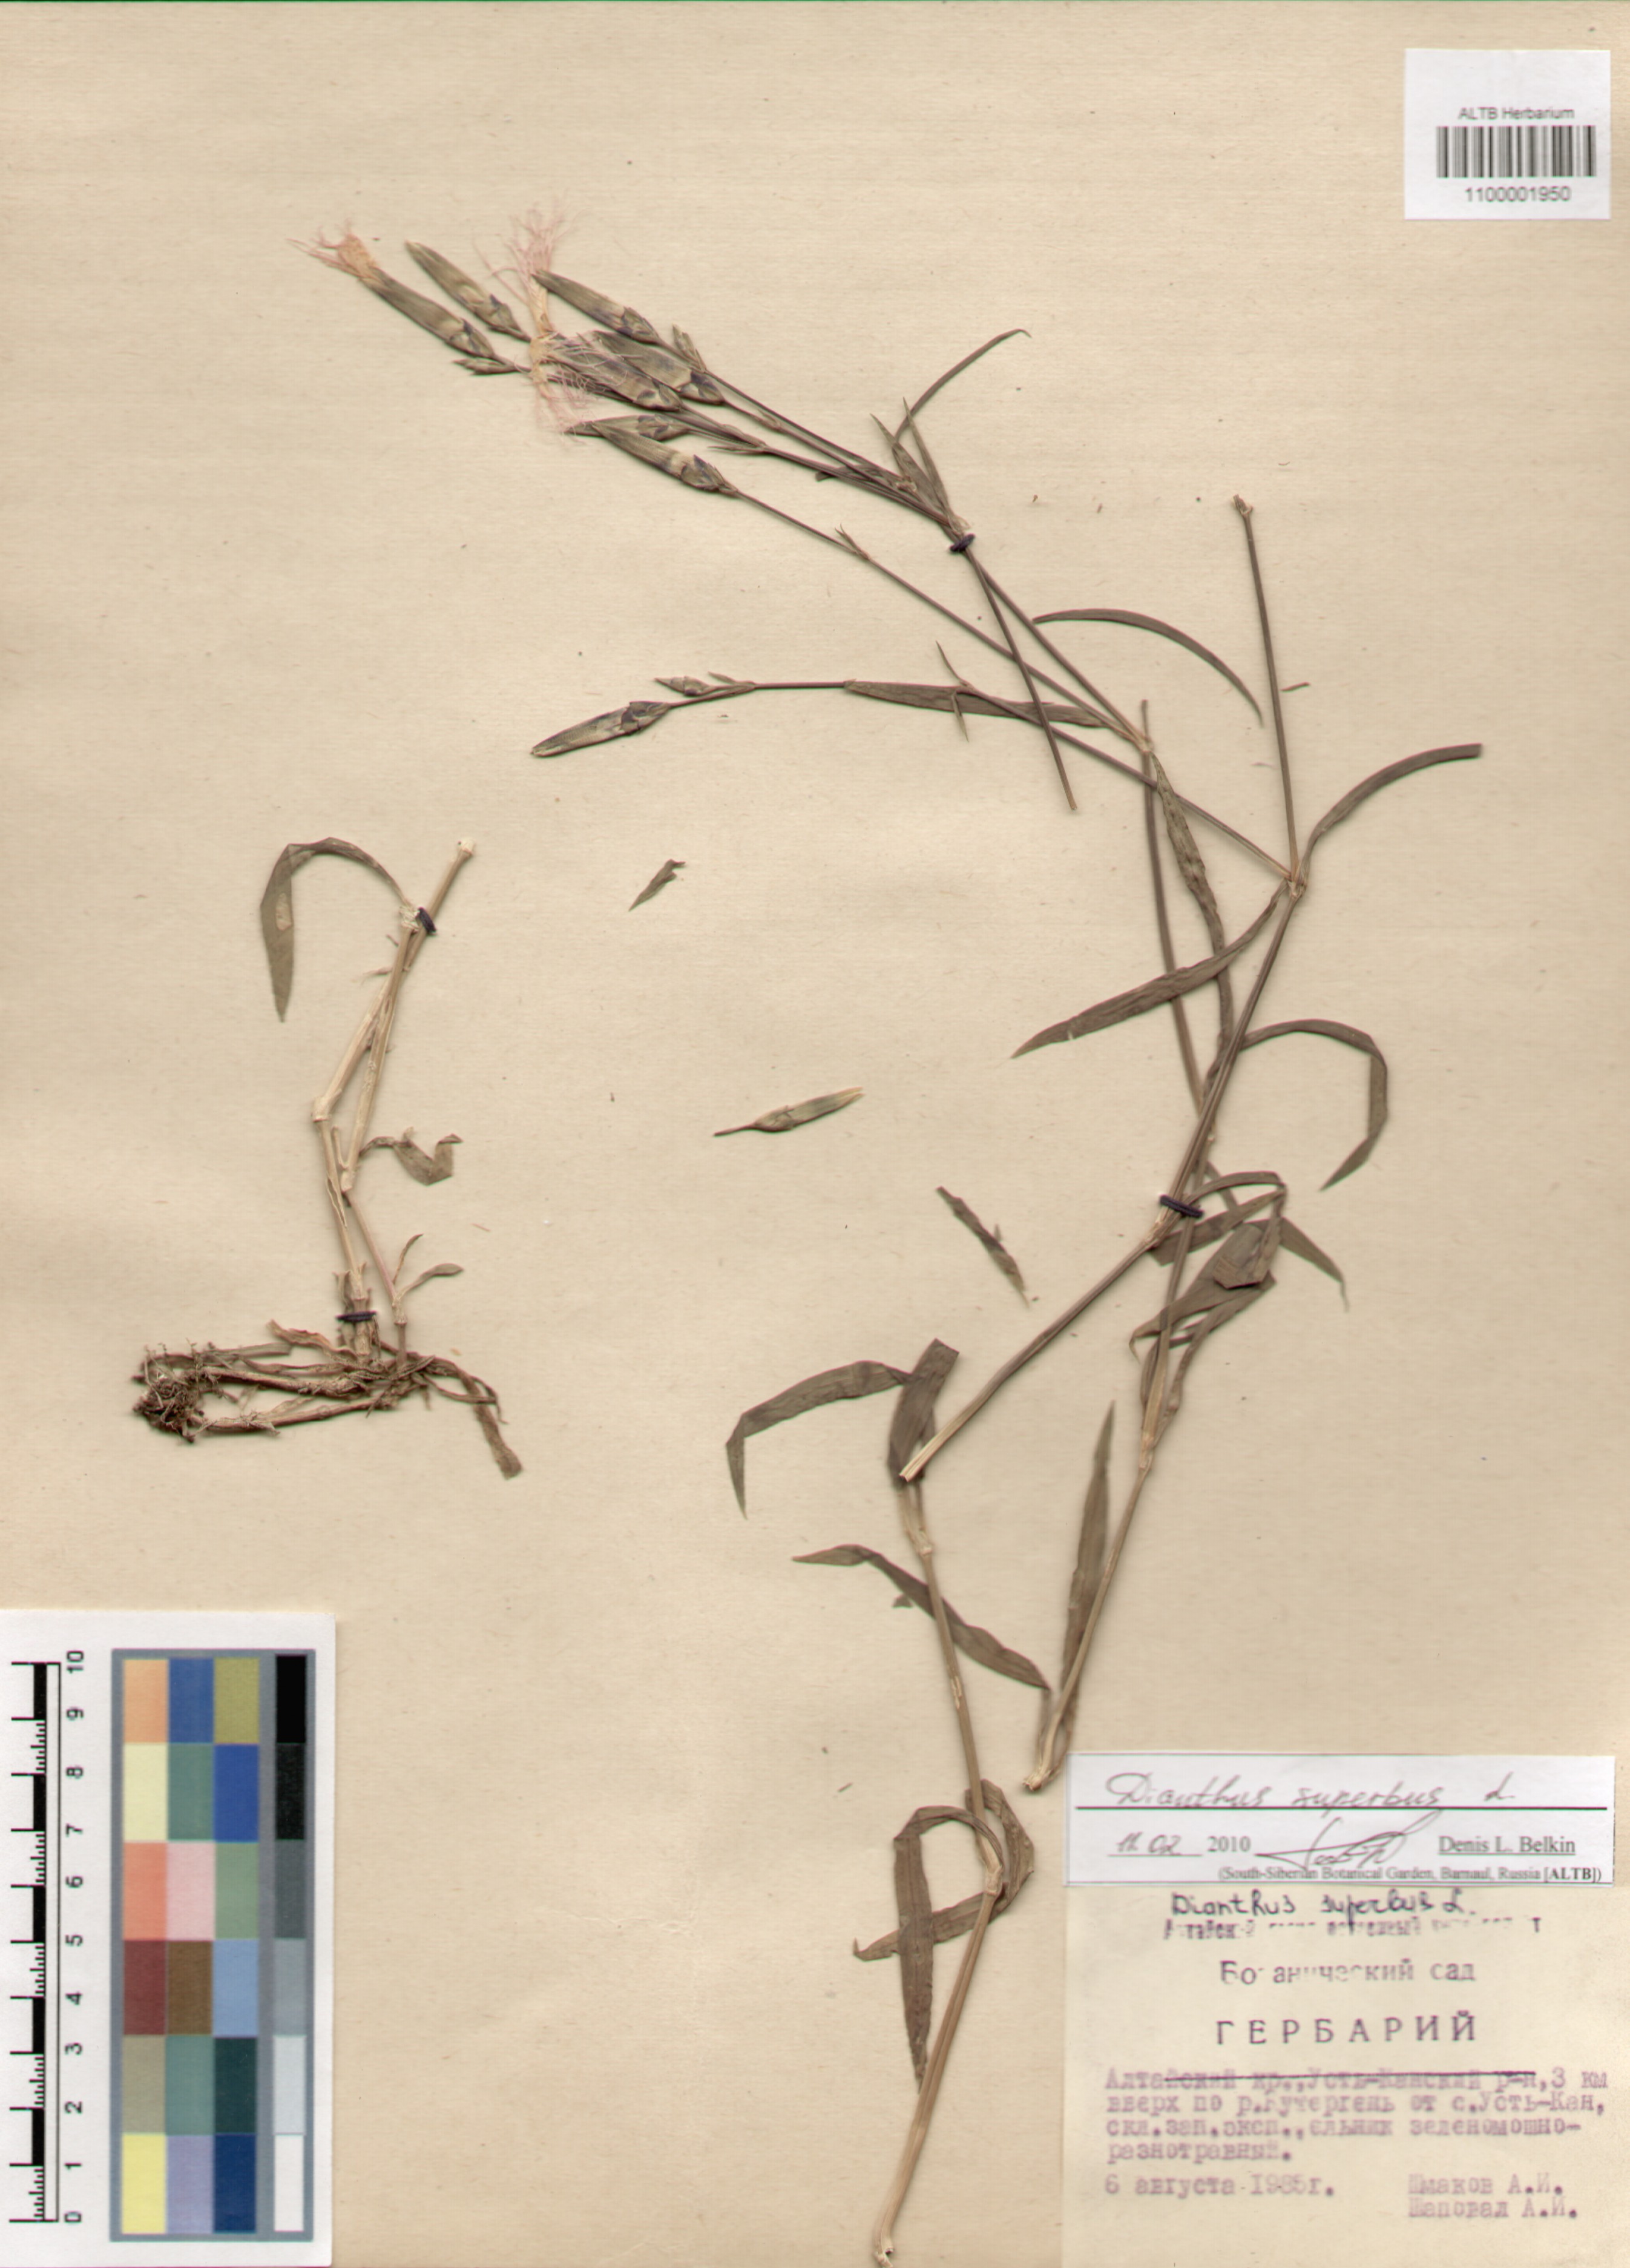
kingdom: Plantae
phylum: Tracheophyta
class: Magnoliopsida
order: Caryophyllales
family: Caryophyllaceae
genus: Dianthus
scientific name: Dianthus superbus
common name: Fringed pink
